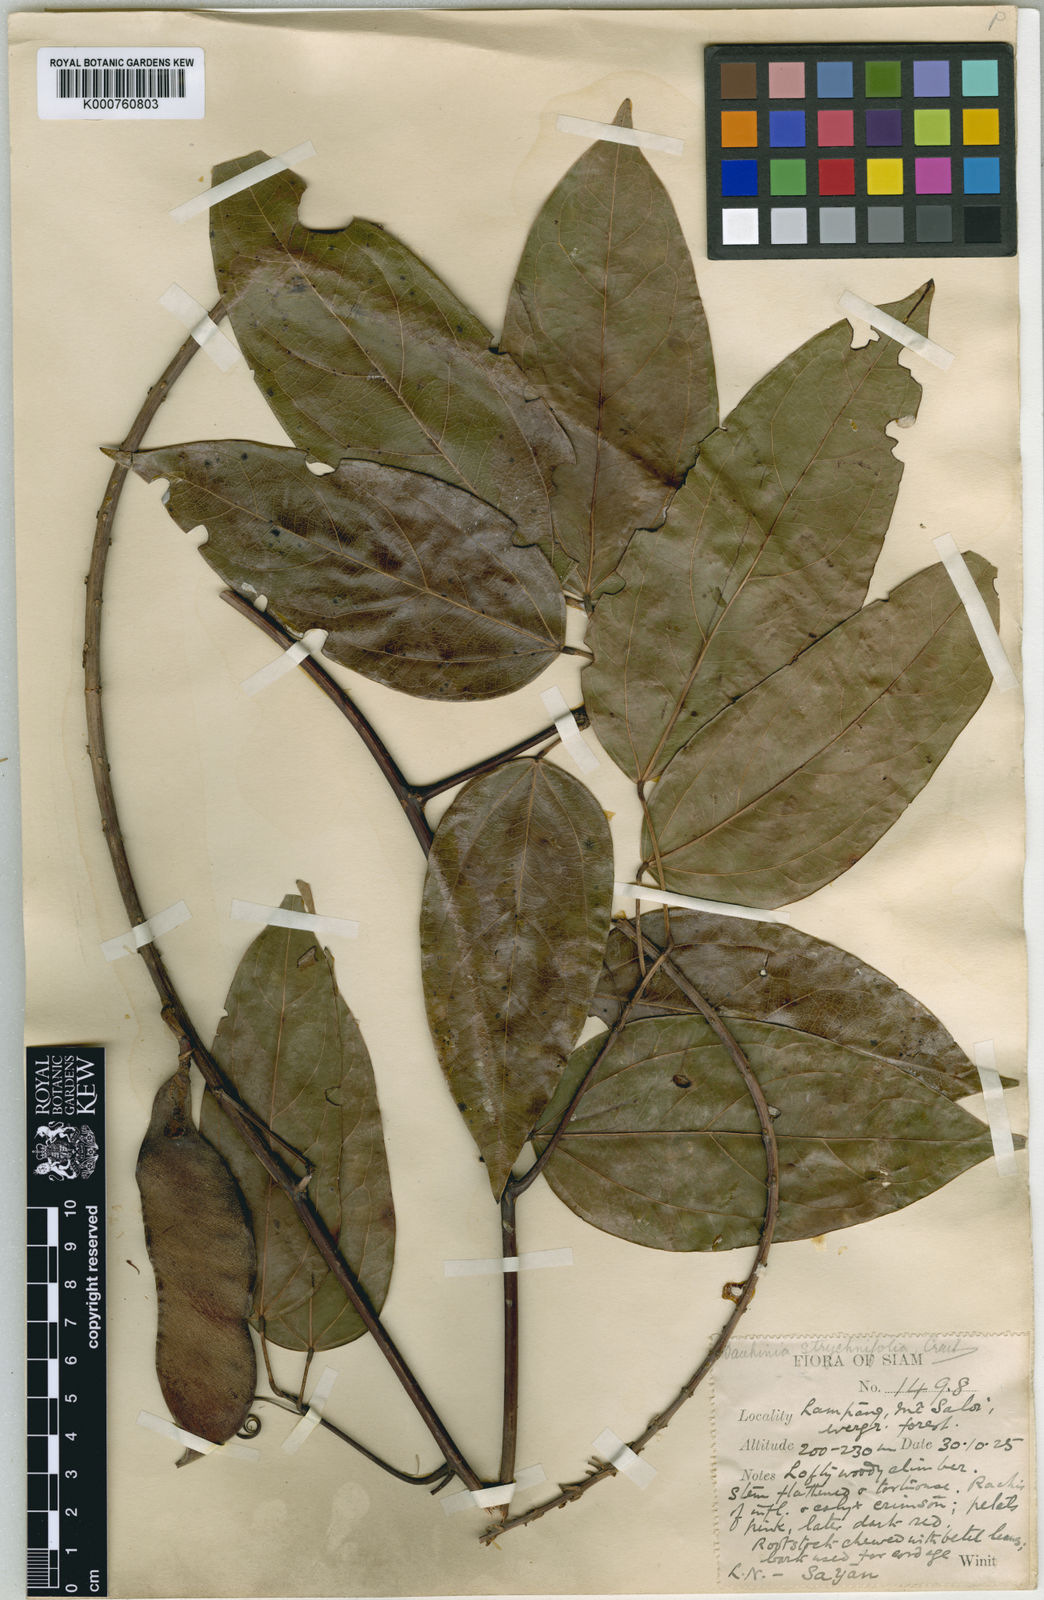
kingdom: Plantae
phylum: Tracheophyta
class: Magnoliopsida
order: Fabales
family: Fabaceae
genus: Lysiphyllum
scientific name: Lysiphyllum strychnifolium
